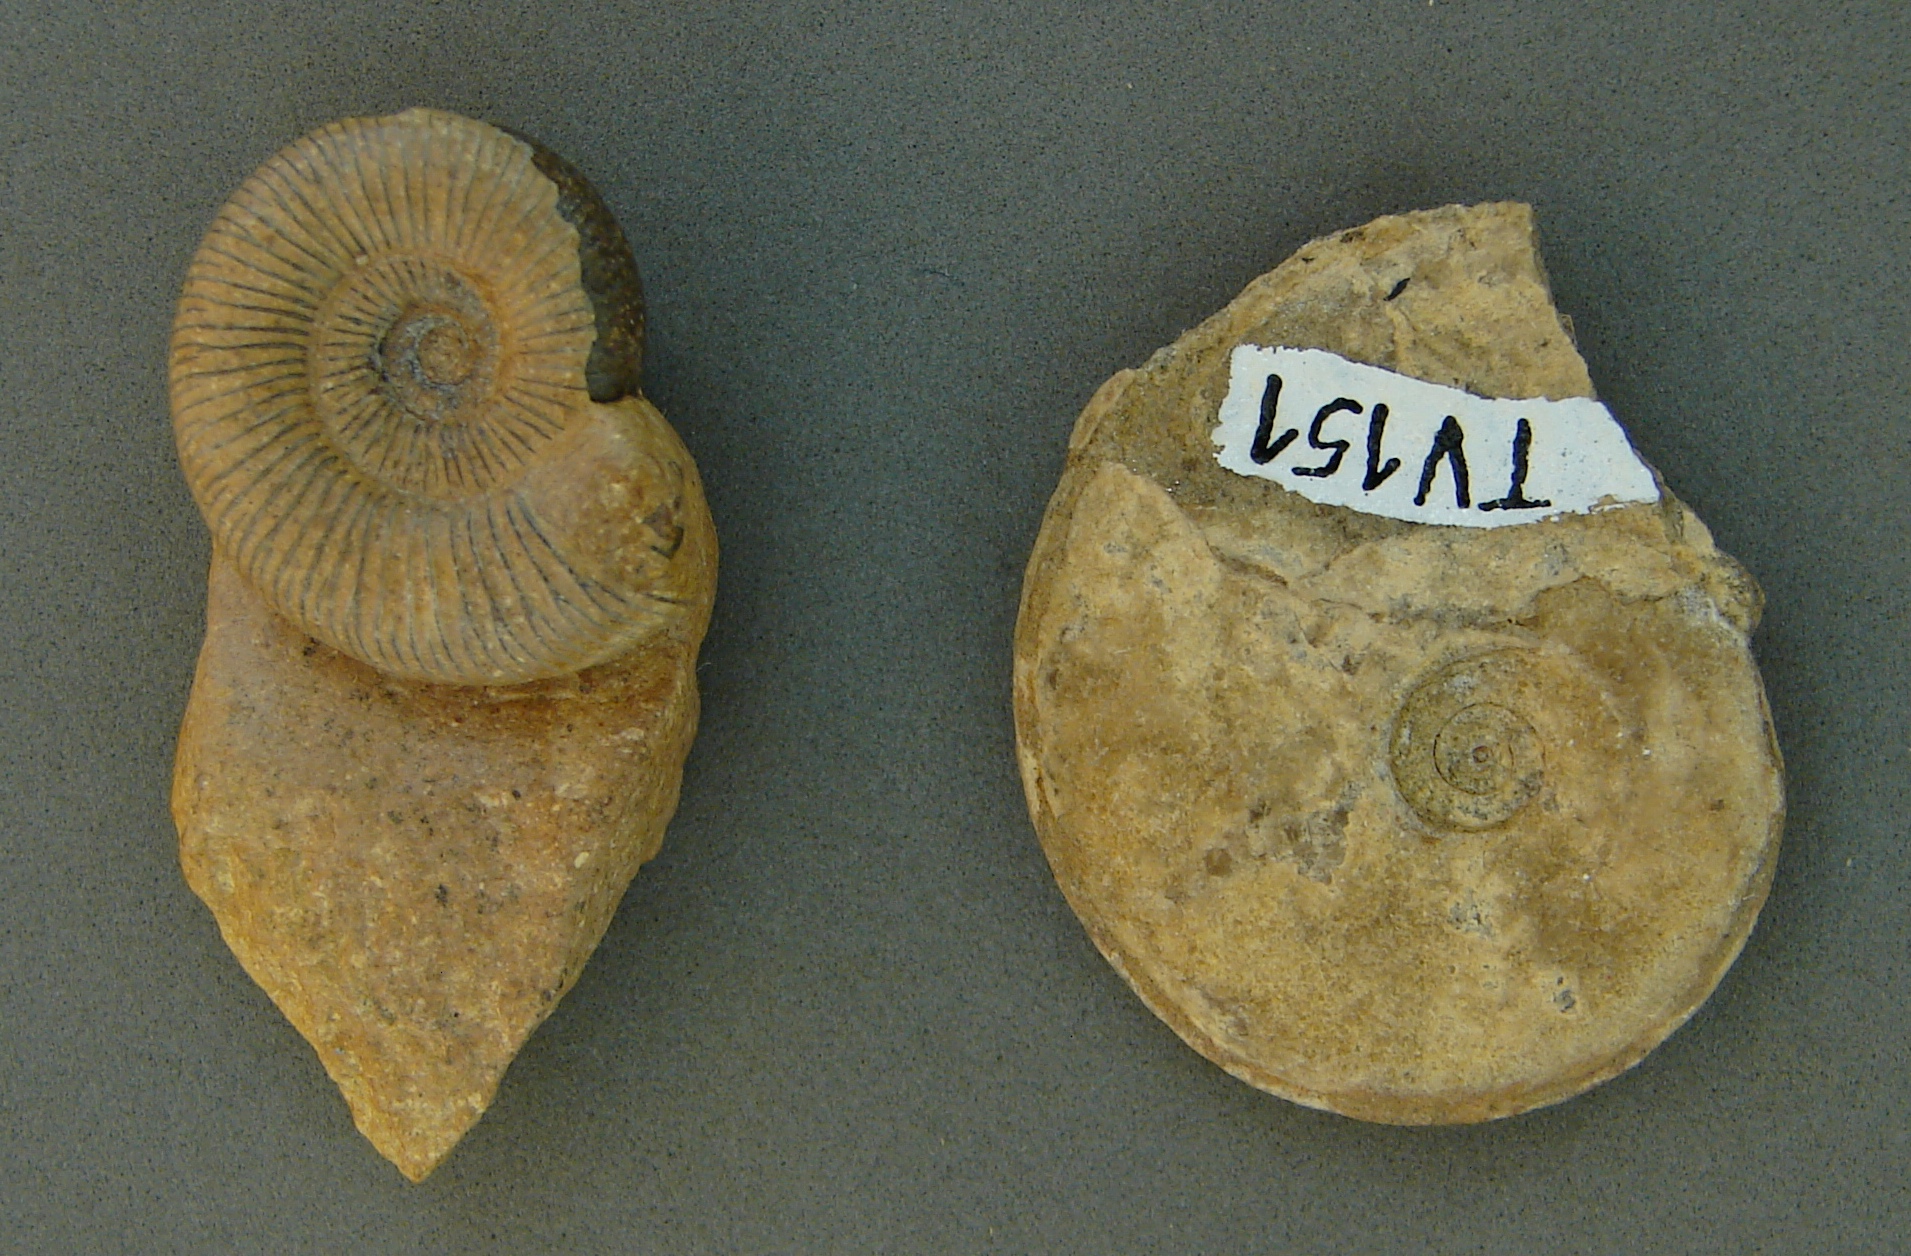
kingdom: Animalia
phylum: Mollusca
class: Cephalopoda
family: Dactylioceratidae
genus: Dactylioceras
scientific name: Dactylioceras
